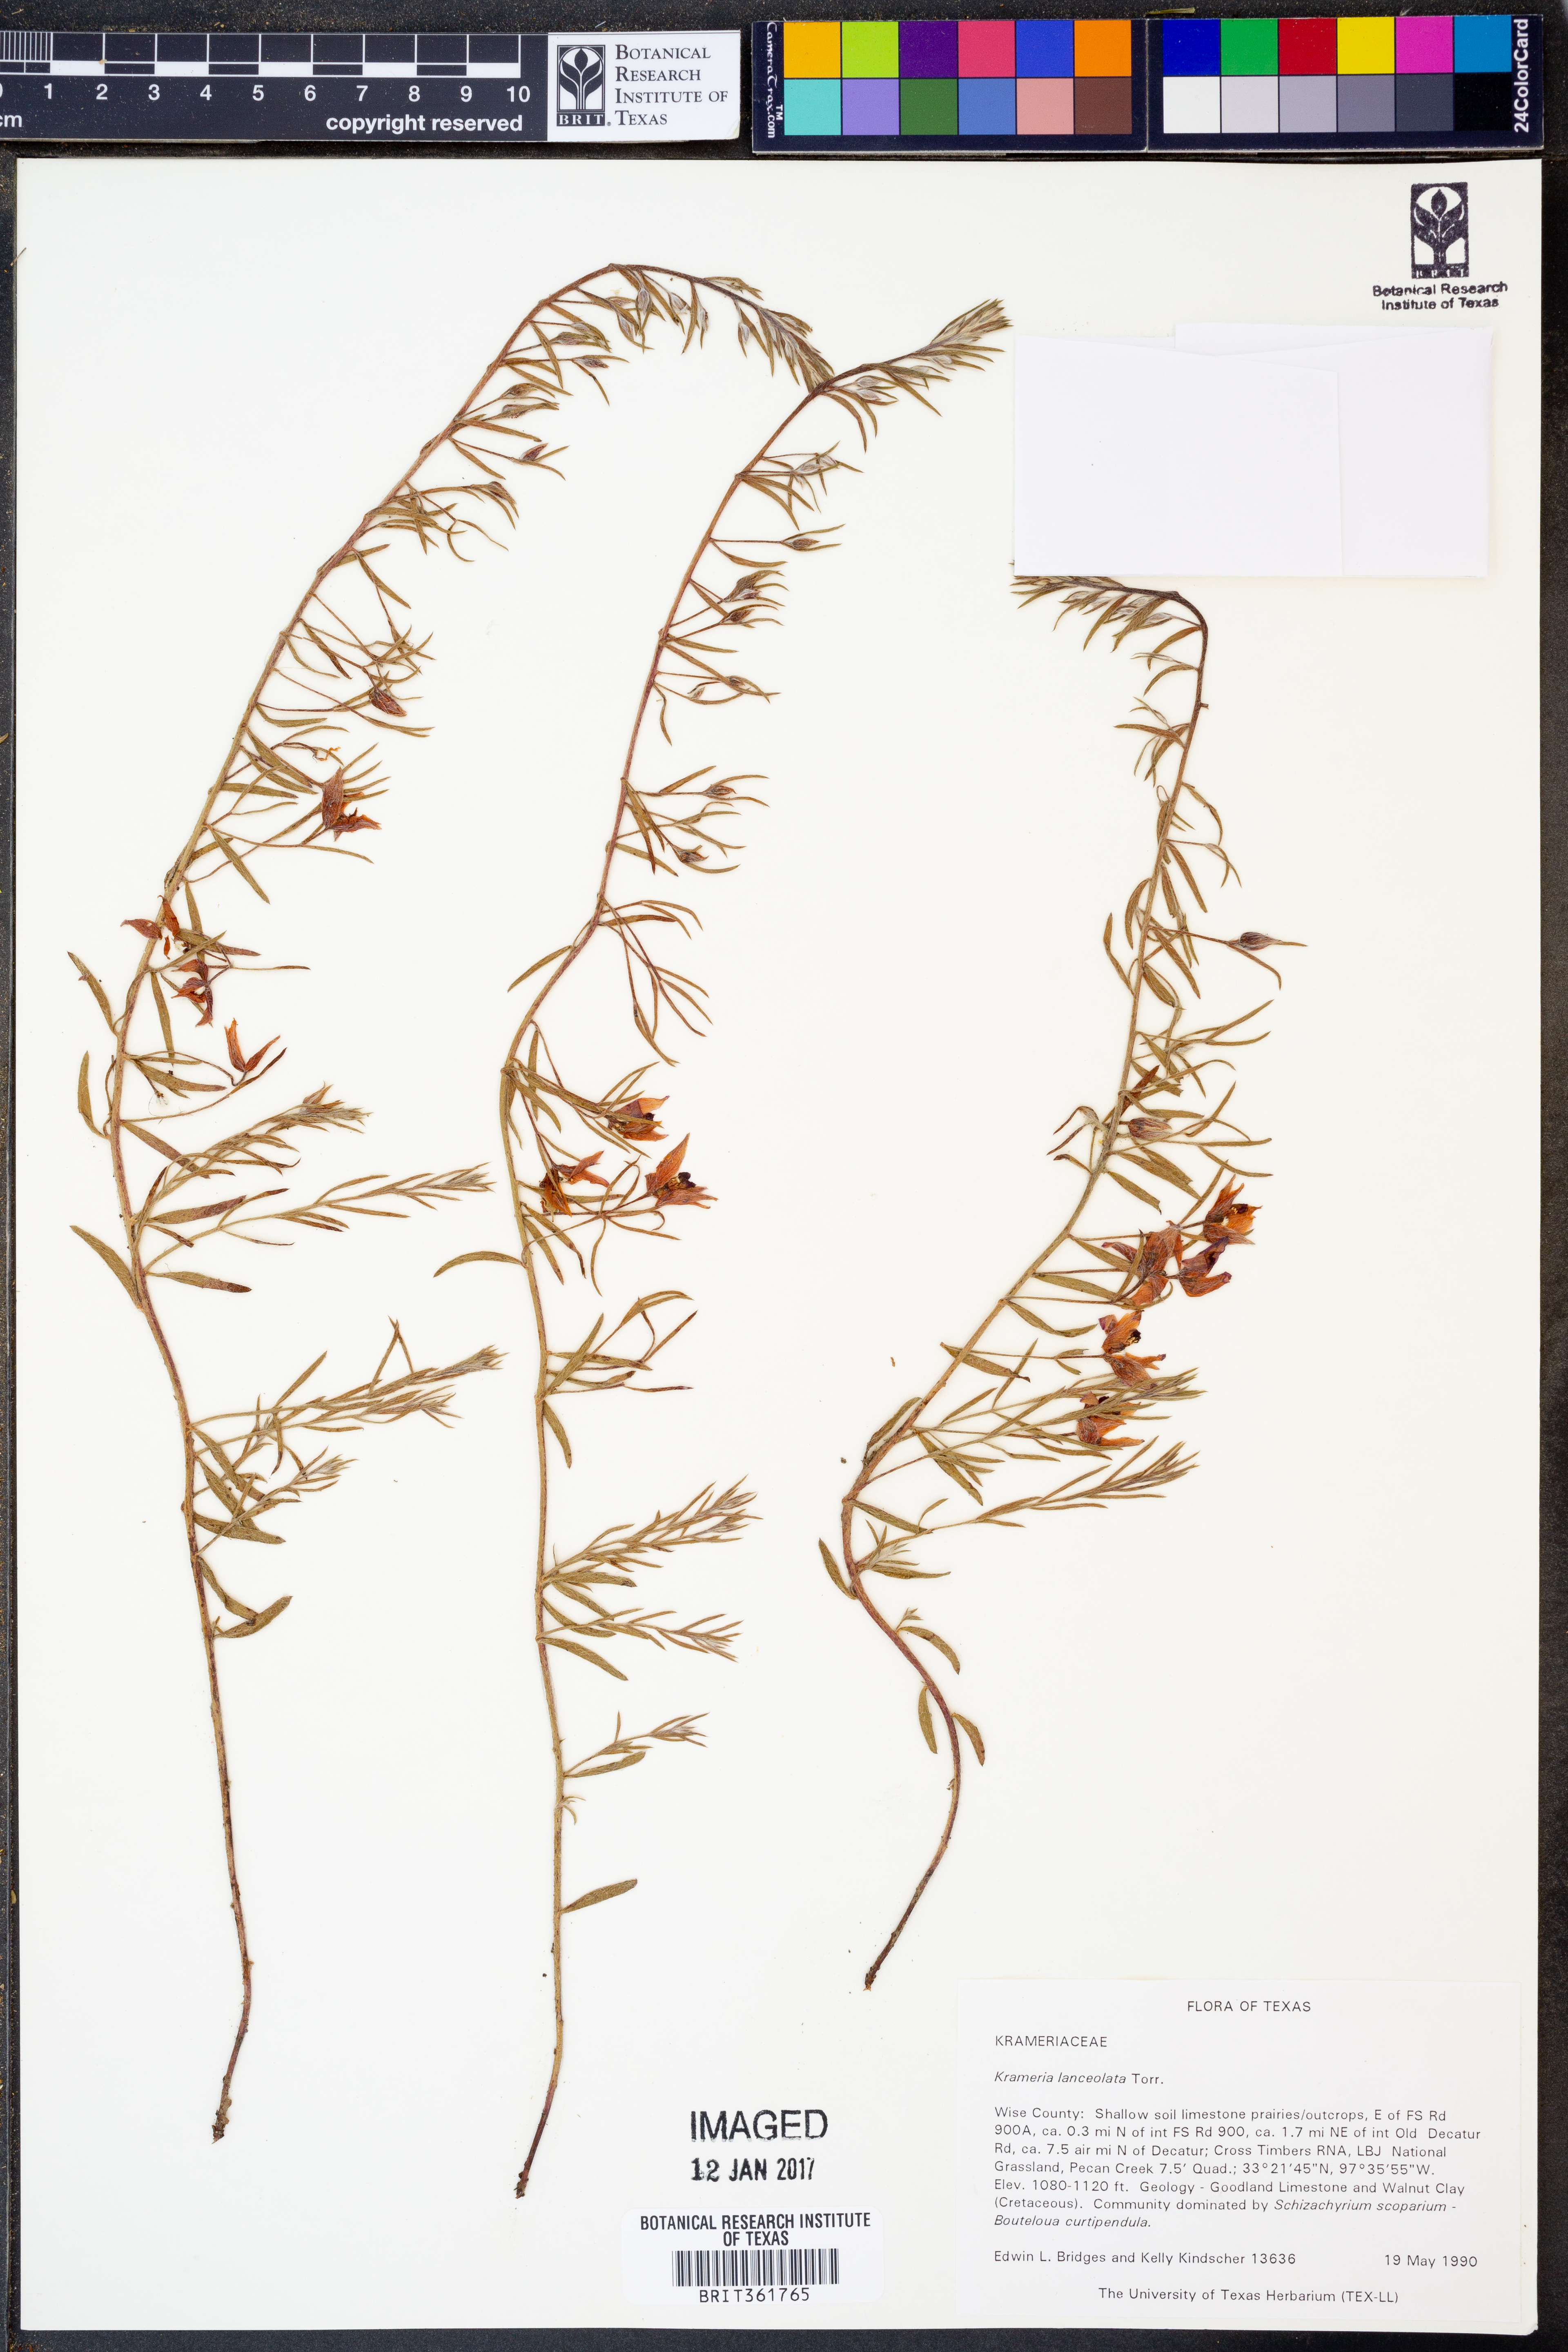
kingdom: Plantae
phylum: Tracheophyta
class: Magnoliopsida
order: Zygophyllales
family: Krameriaceae
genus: Krameria
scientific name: Krameria lanceolata
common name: Ratany
